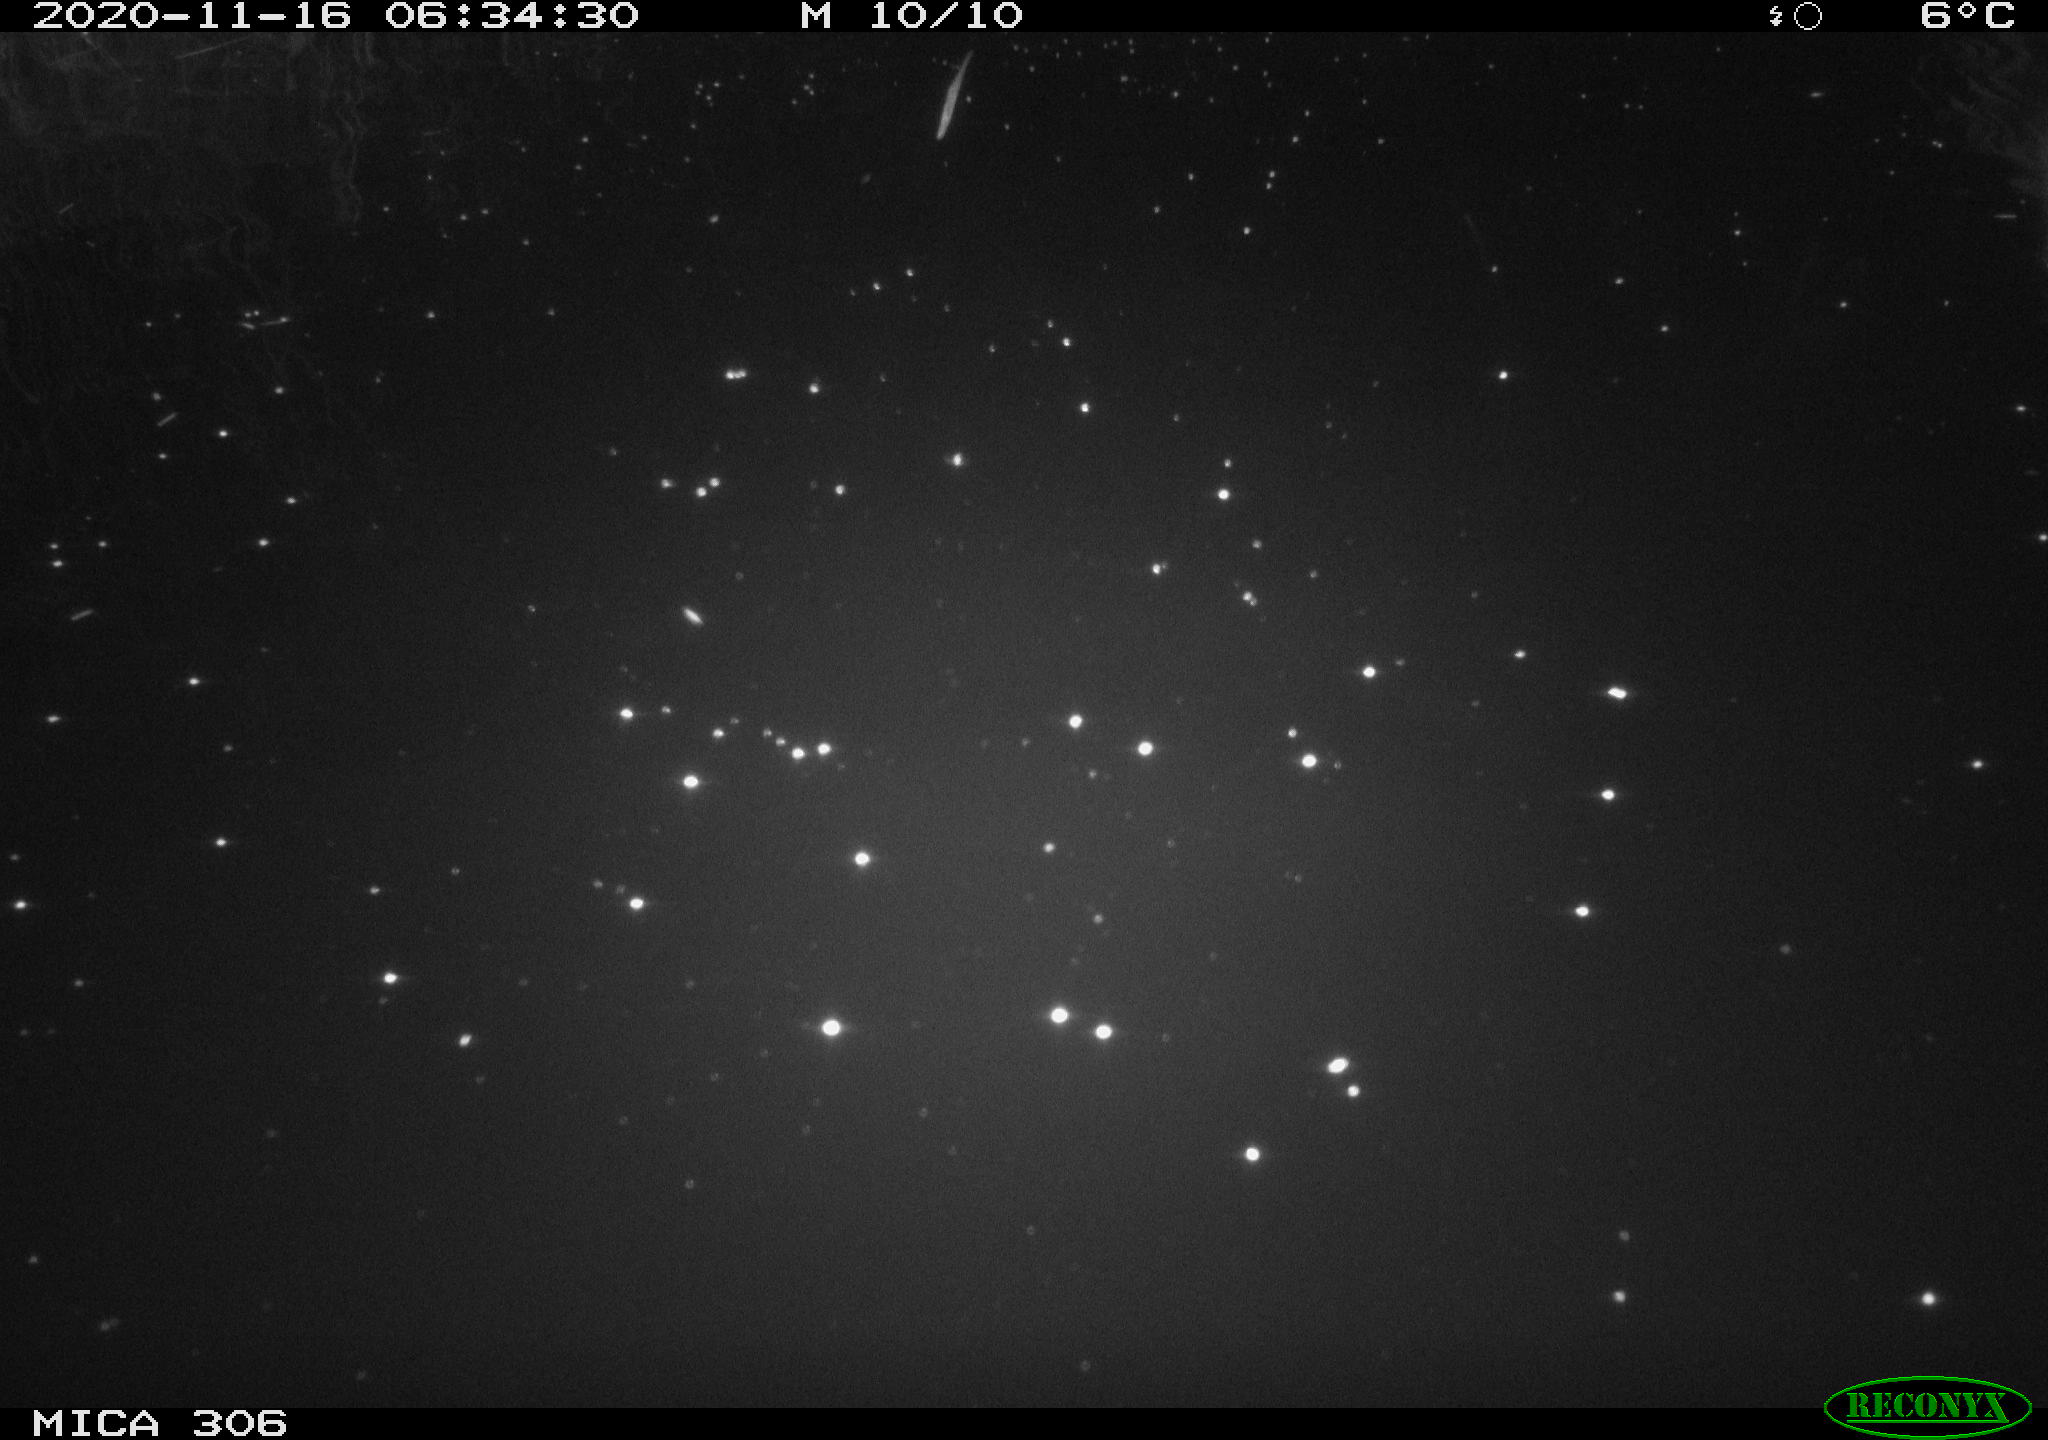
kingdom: Animalia
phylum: Chordata
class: Mammalia
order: Rodentia
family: Cricetidae
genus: Ondatra
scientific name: Ondatra zibethicus
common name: Muskrat
